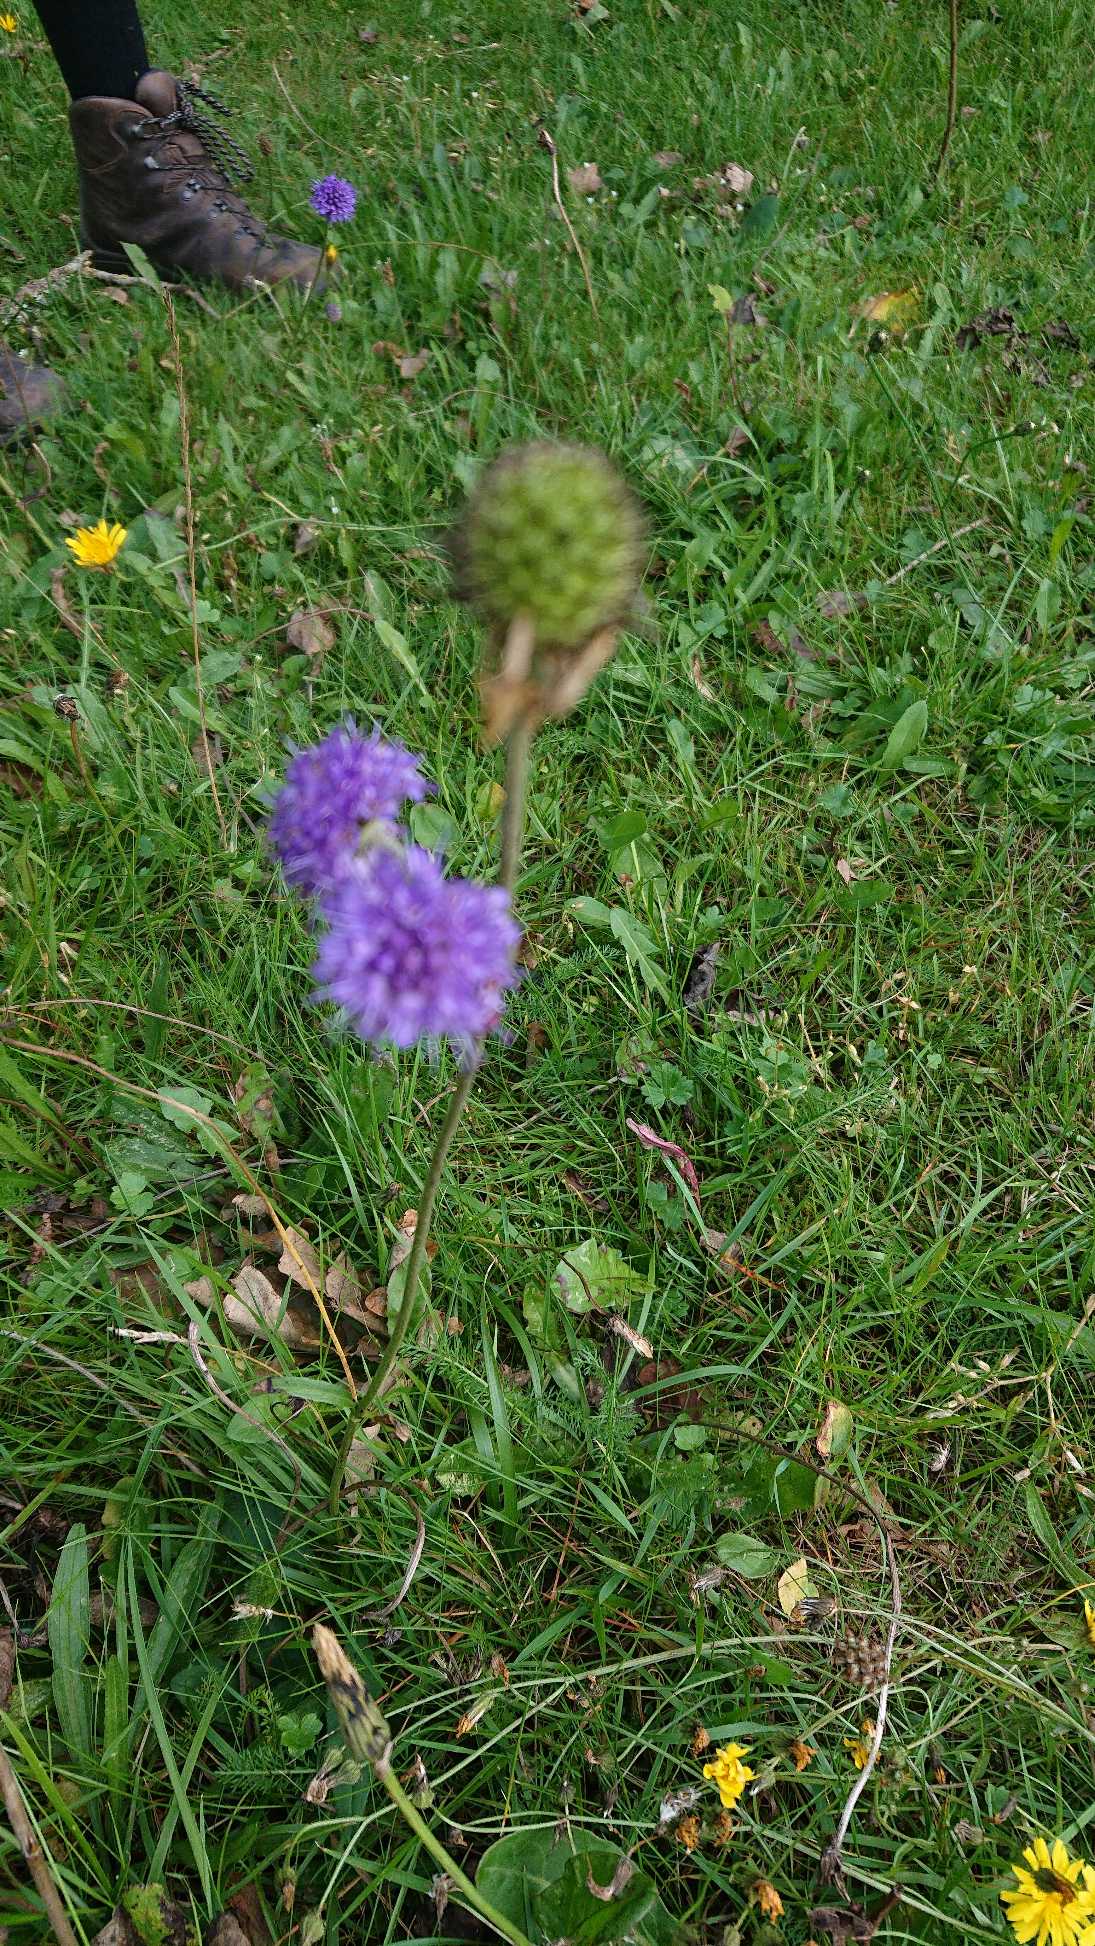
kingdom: Plantae
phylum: Tracheophyta
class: Magnoliopsida
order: Dipsacales
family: Caprifoliaceae
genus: Succisa
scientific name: Succisa pratensis
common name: Djævelsbid
